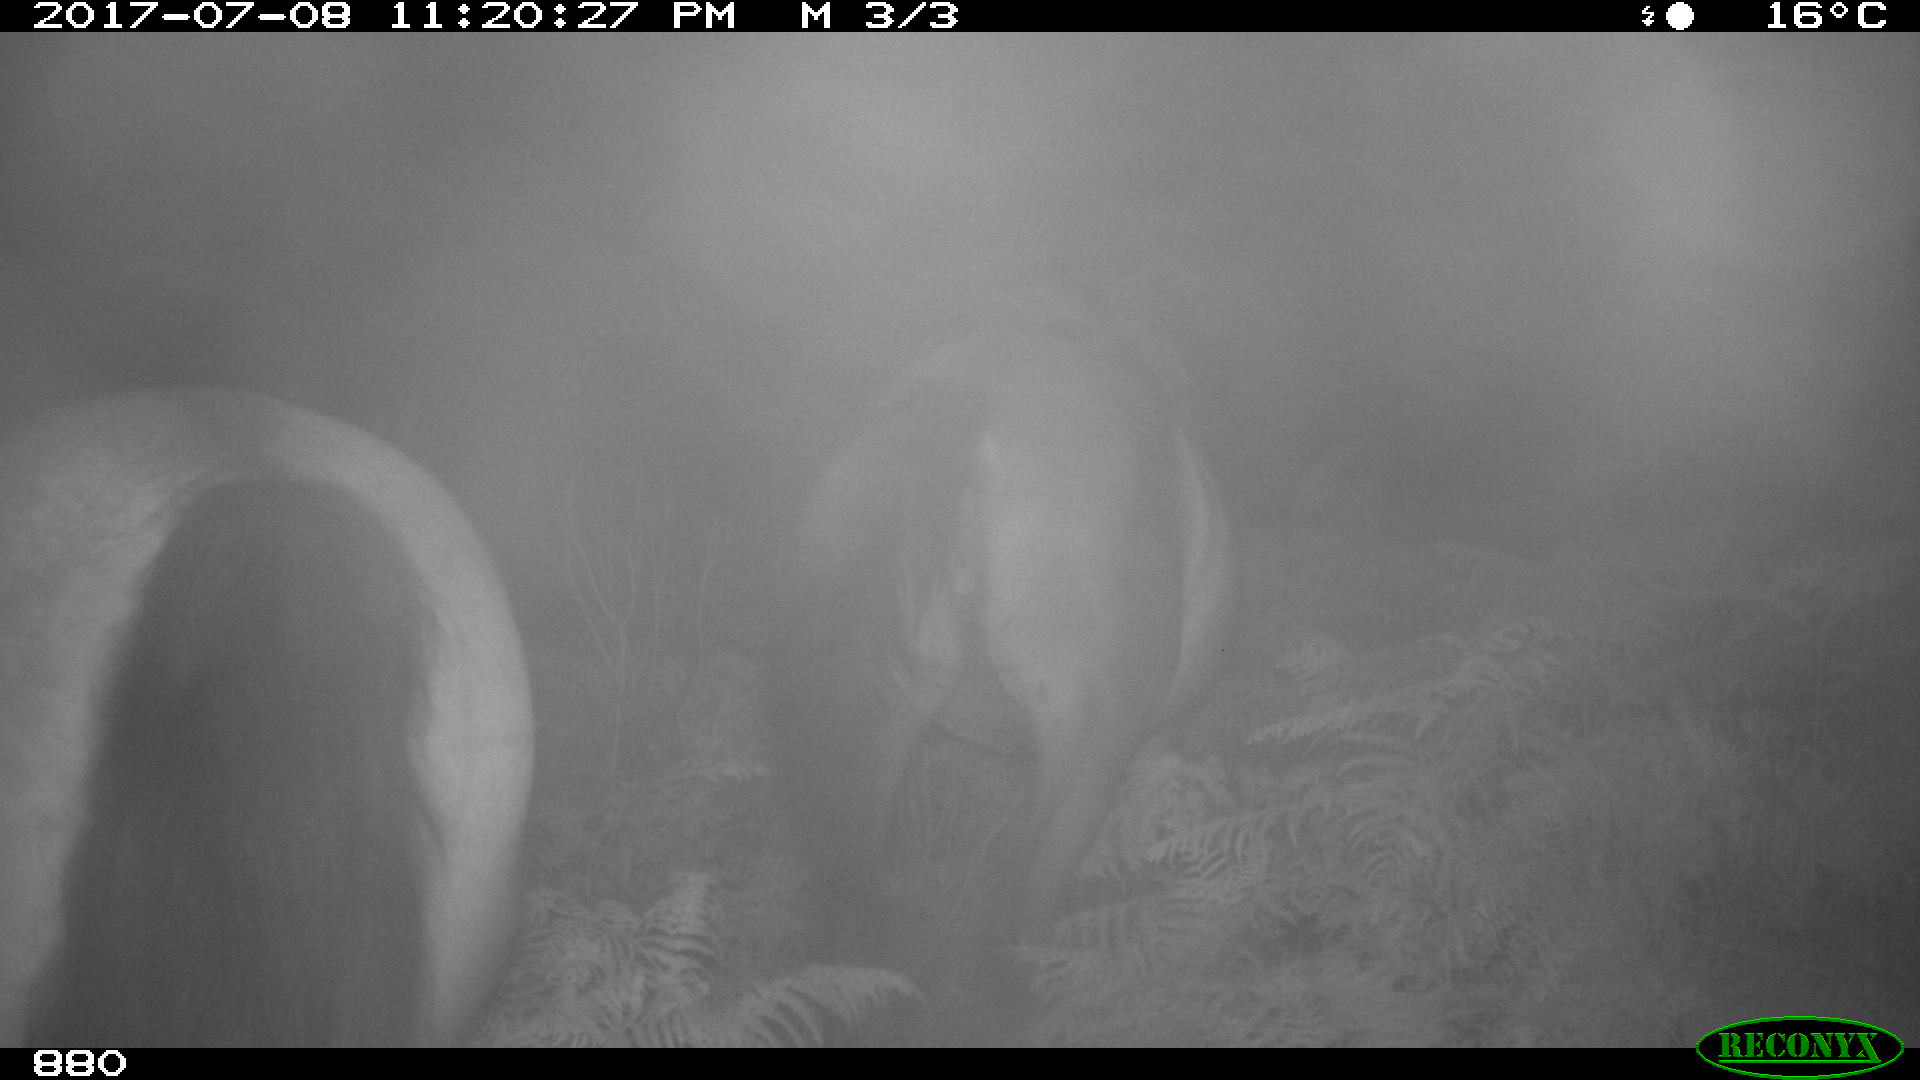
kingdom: Animalia
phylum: Chordata
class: Mammalia
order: Perissodactyla
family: Equidae
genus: Equus
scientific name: Equus caballus
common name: Horse
